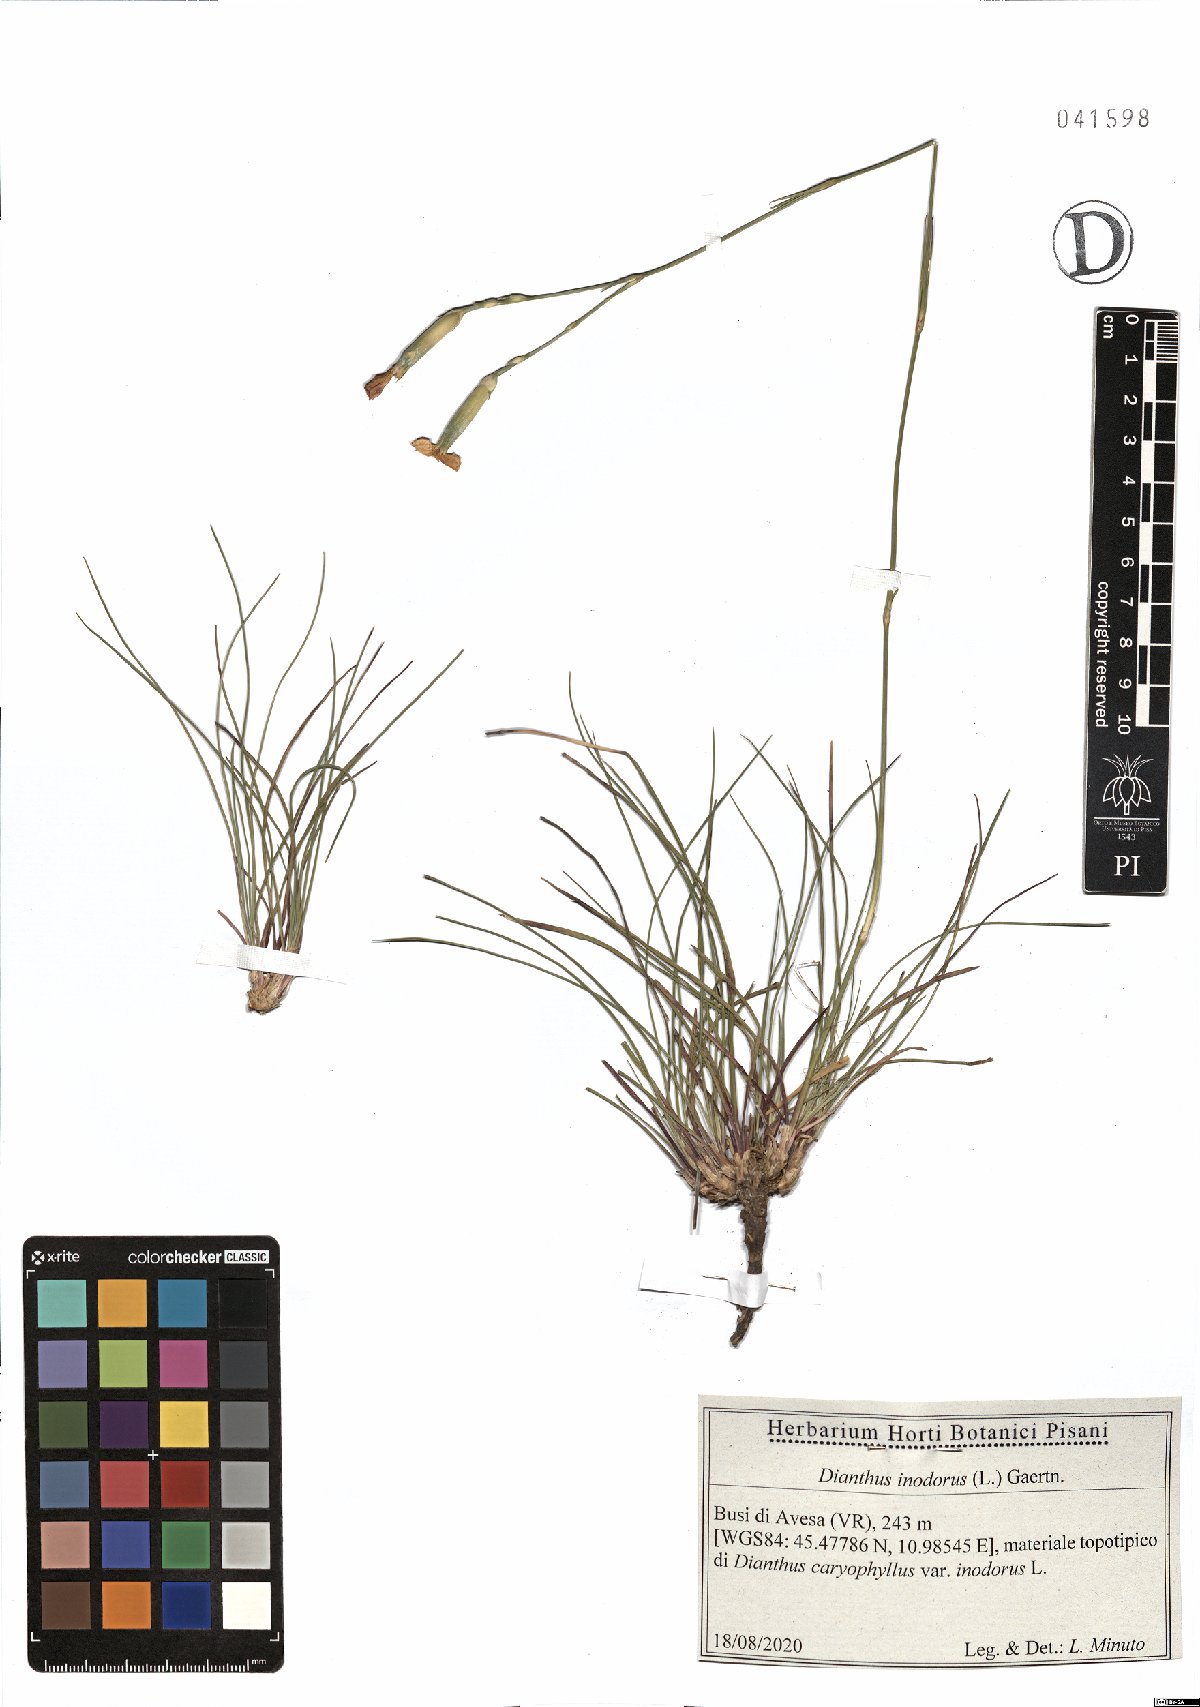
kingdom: Plantae
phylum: Tracheophyta
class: Magnoliopsida
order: Caryophyllales
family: Caryophyllaceae
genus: Dianthus
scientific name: Dianthus sylvestris
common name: Wood pink
